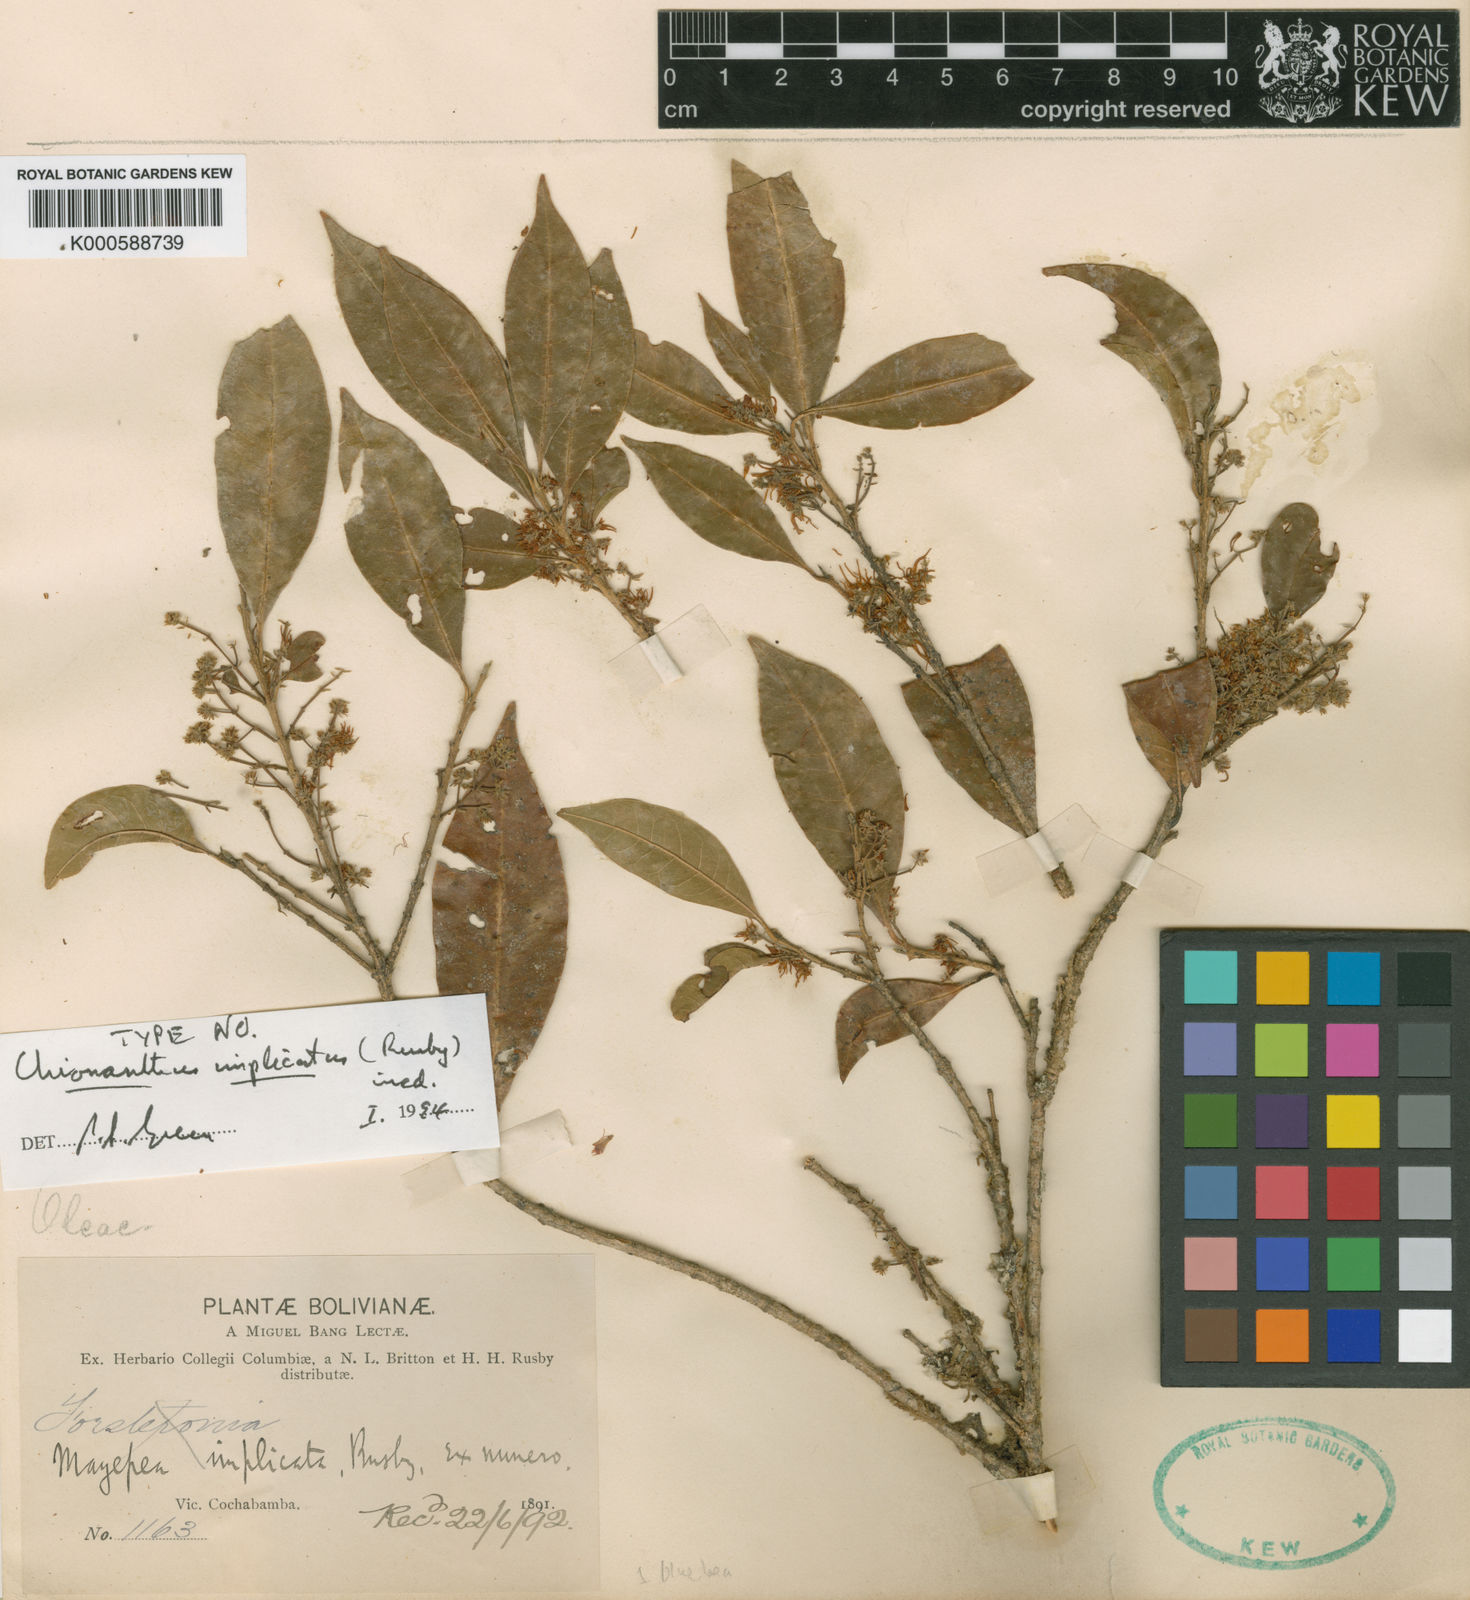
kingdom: Plantae
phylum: Tracheophyta
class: Magnoliopsida
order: Lamiales
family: Oleaceae
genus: Chionanthus
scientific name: Chionanthus implicatus
